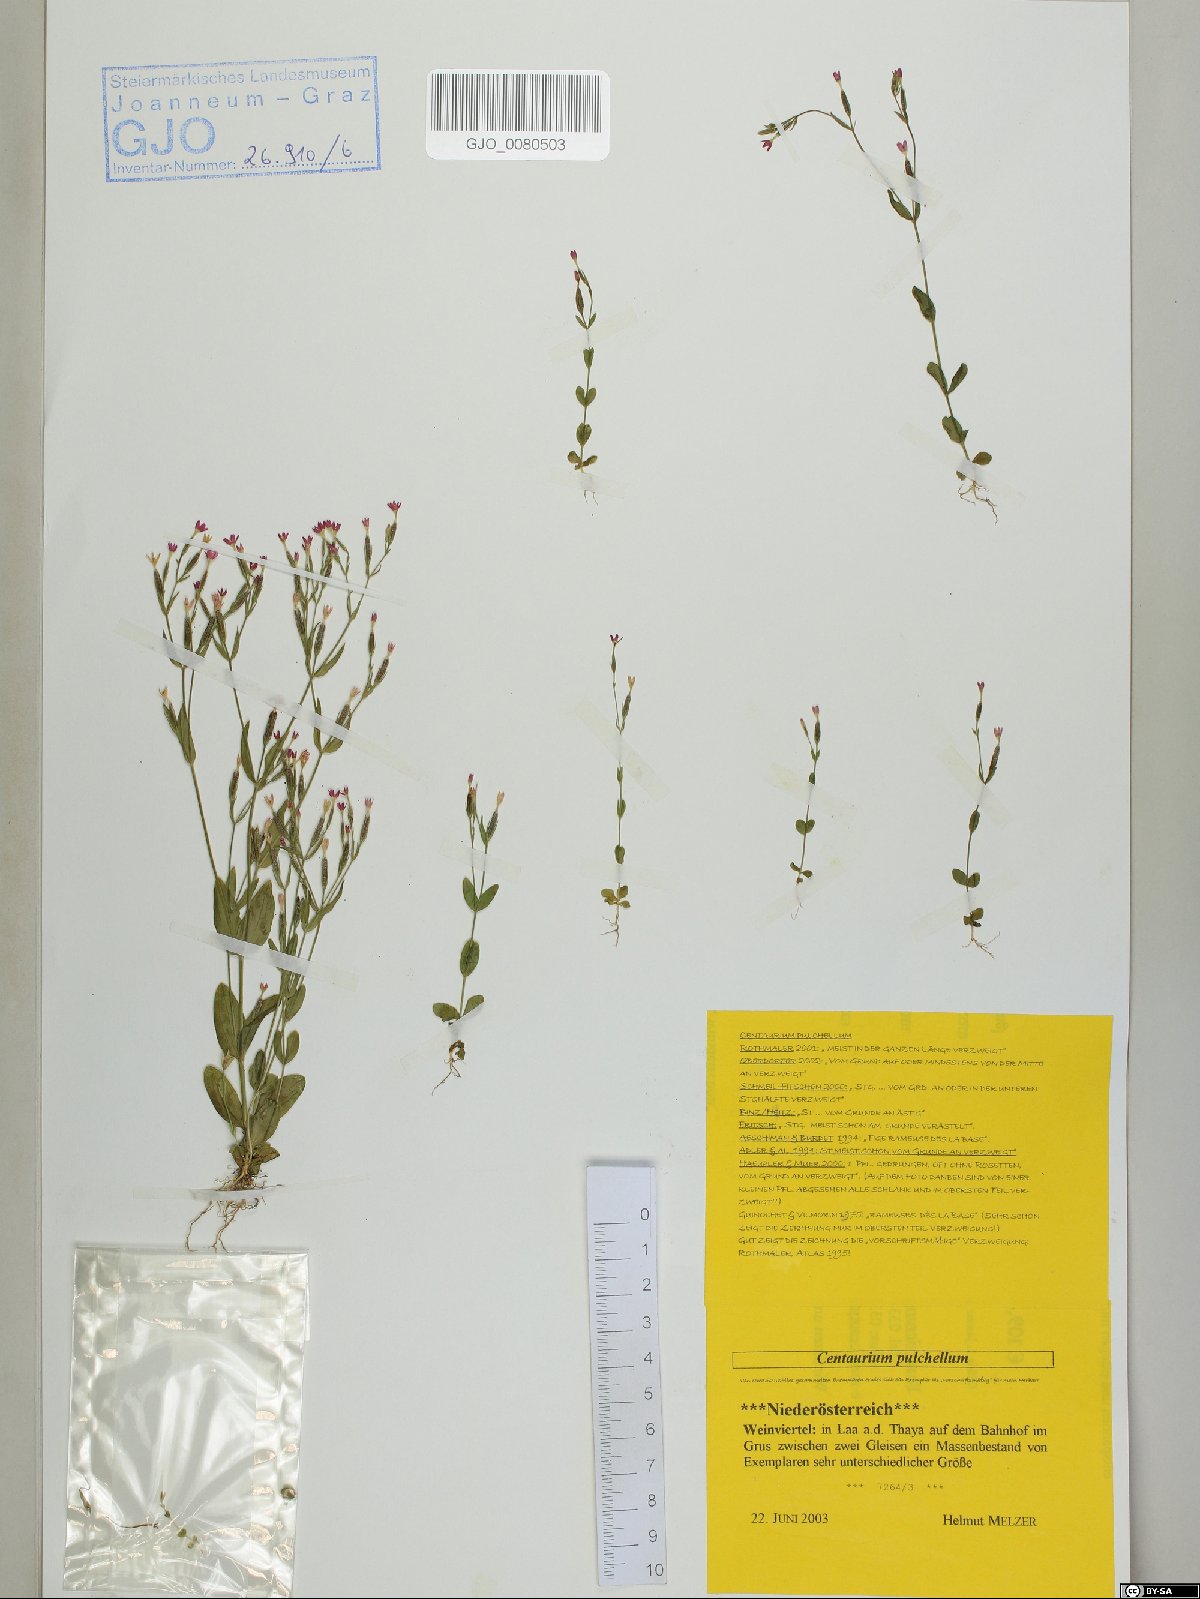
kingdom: Plantae
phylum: Tracheophyta
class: Magnoliopsida
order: Gentianales
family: Gentianaceae
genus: Centaurium
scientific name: Centaurium pulchellum
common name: Lesser centaury
